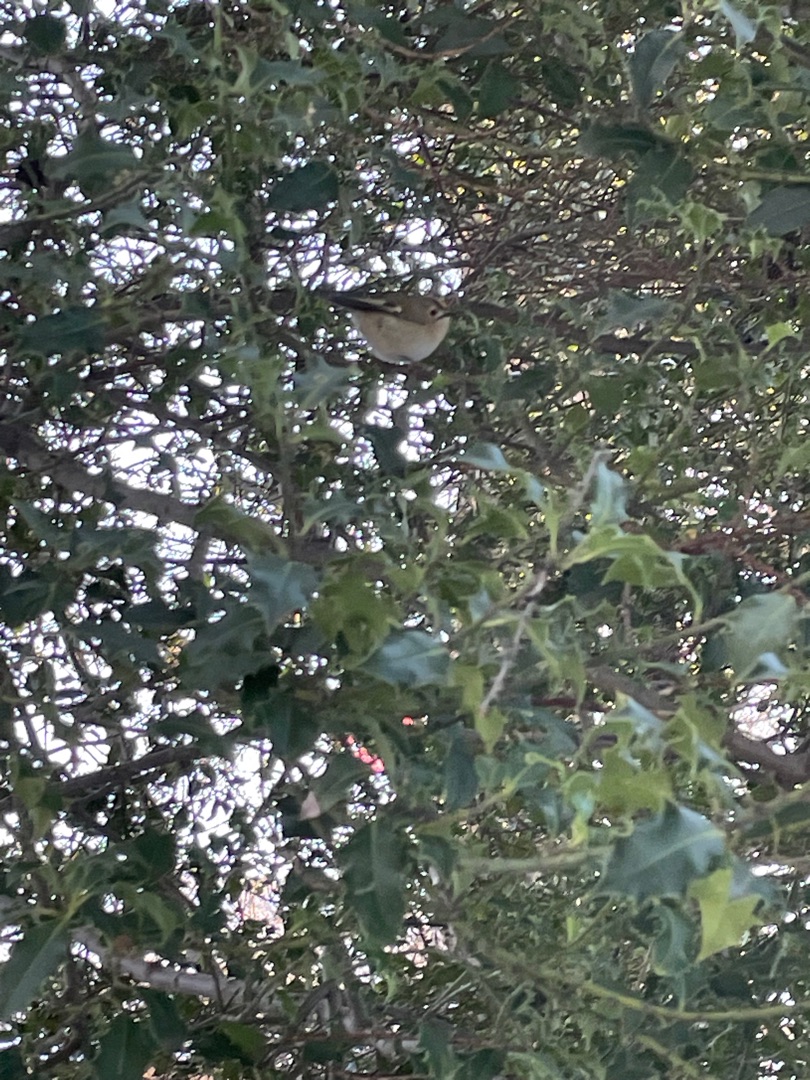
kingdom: Animalia
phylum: Chordata
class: Aves
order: Passeriformes
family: Regulidae
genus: Regulus
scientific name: Regulus regulus
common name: Fuglekonge
